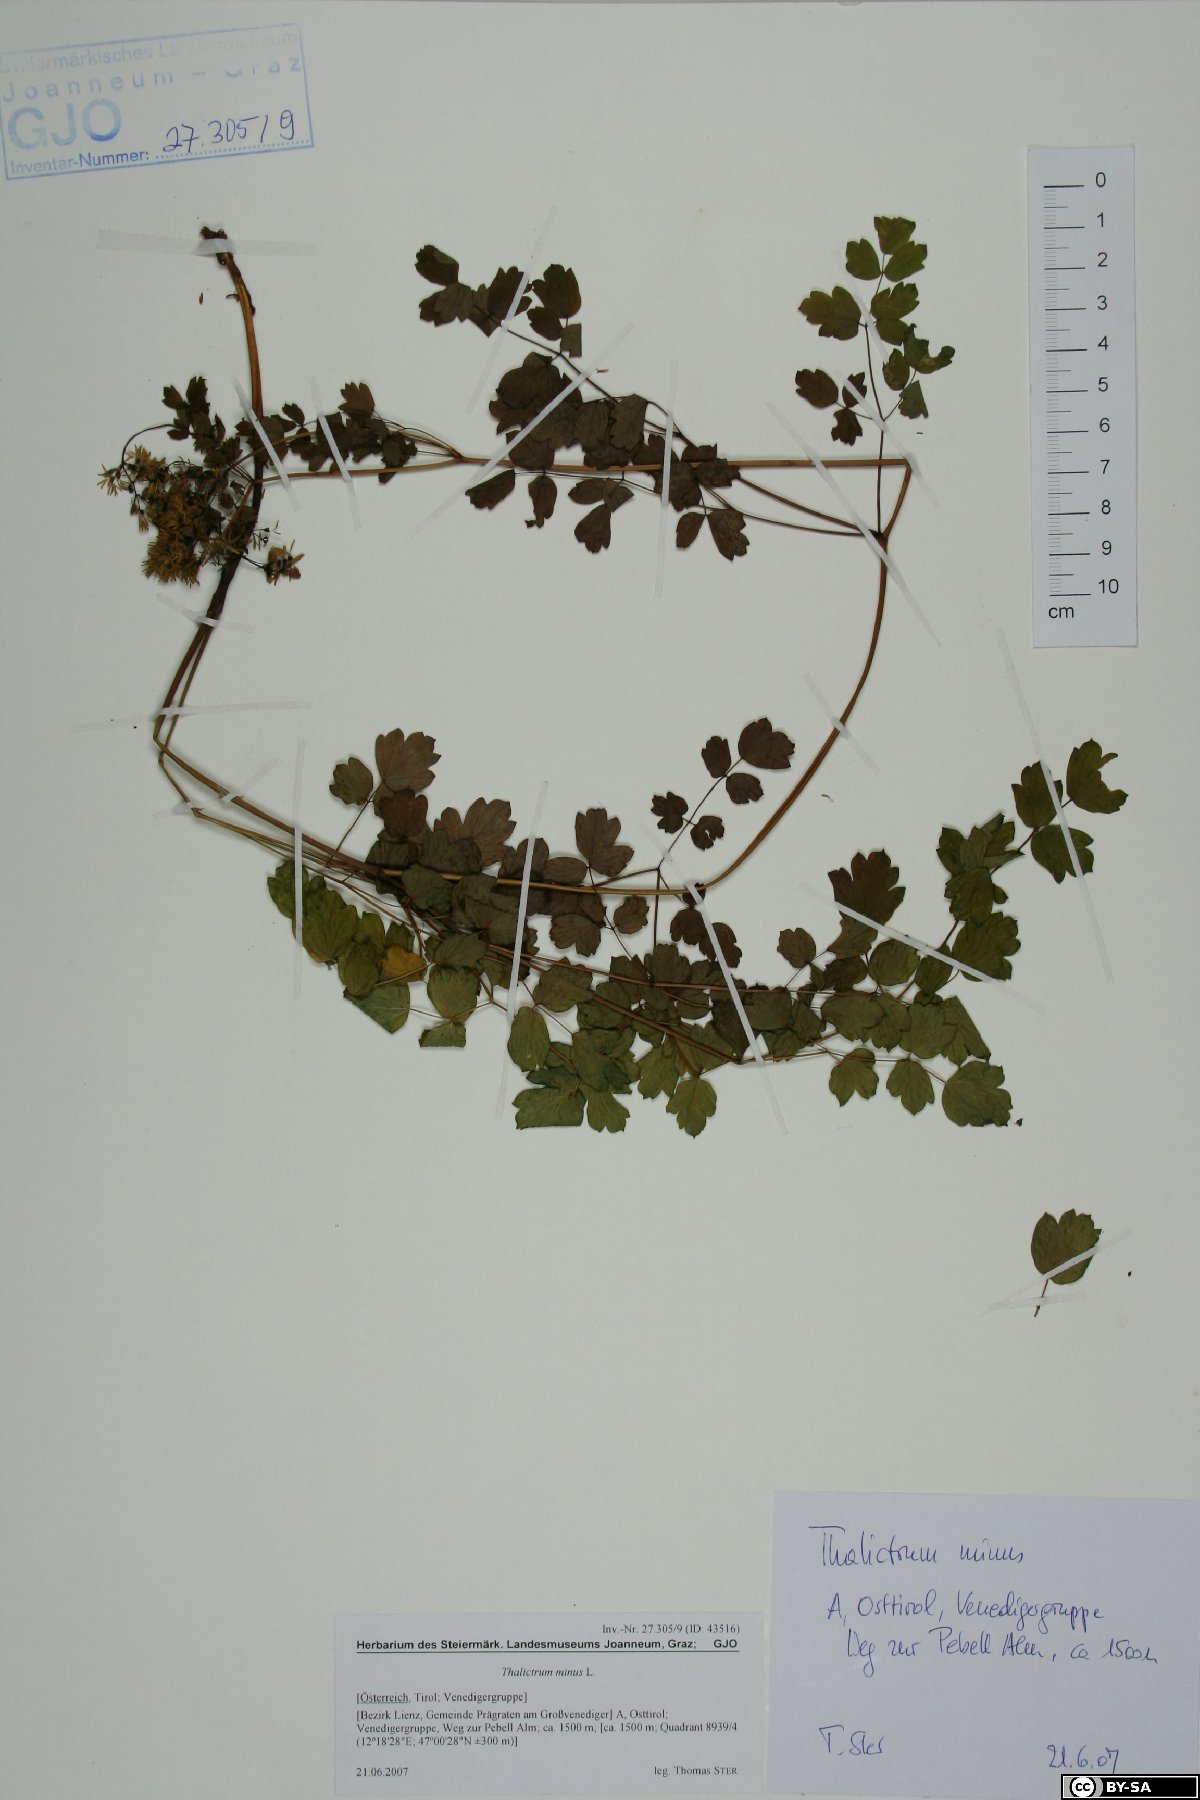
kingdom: Plantae
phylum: Tracheophyta
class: Magnoliopsida
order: Ranunculales
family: Ranunculaceae
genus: Thalictrum
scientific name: Thalictrum minus
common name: Lesser meadow-rue
